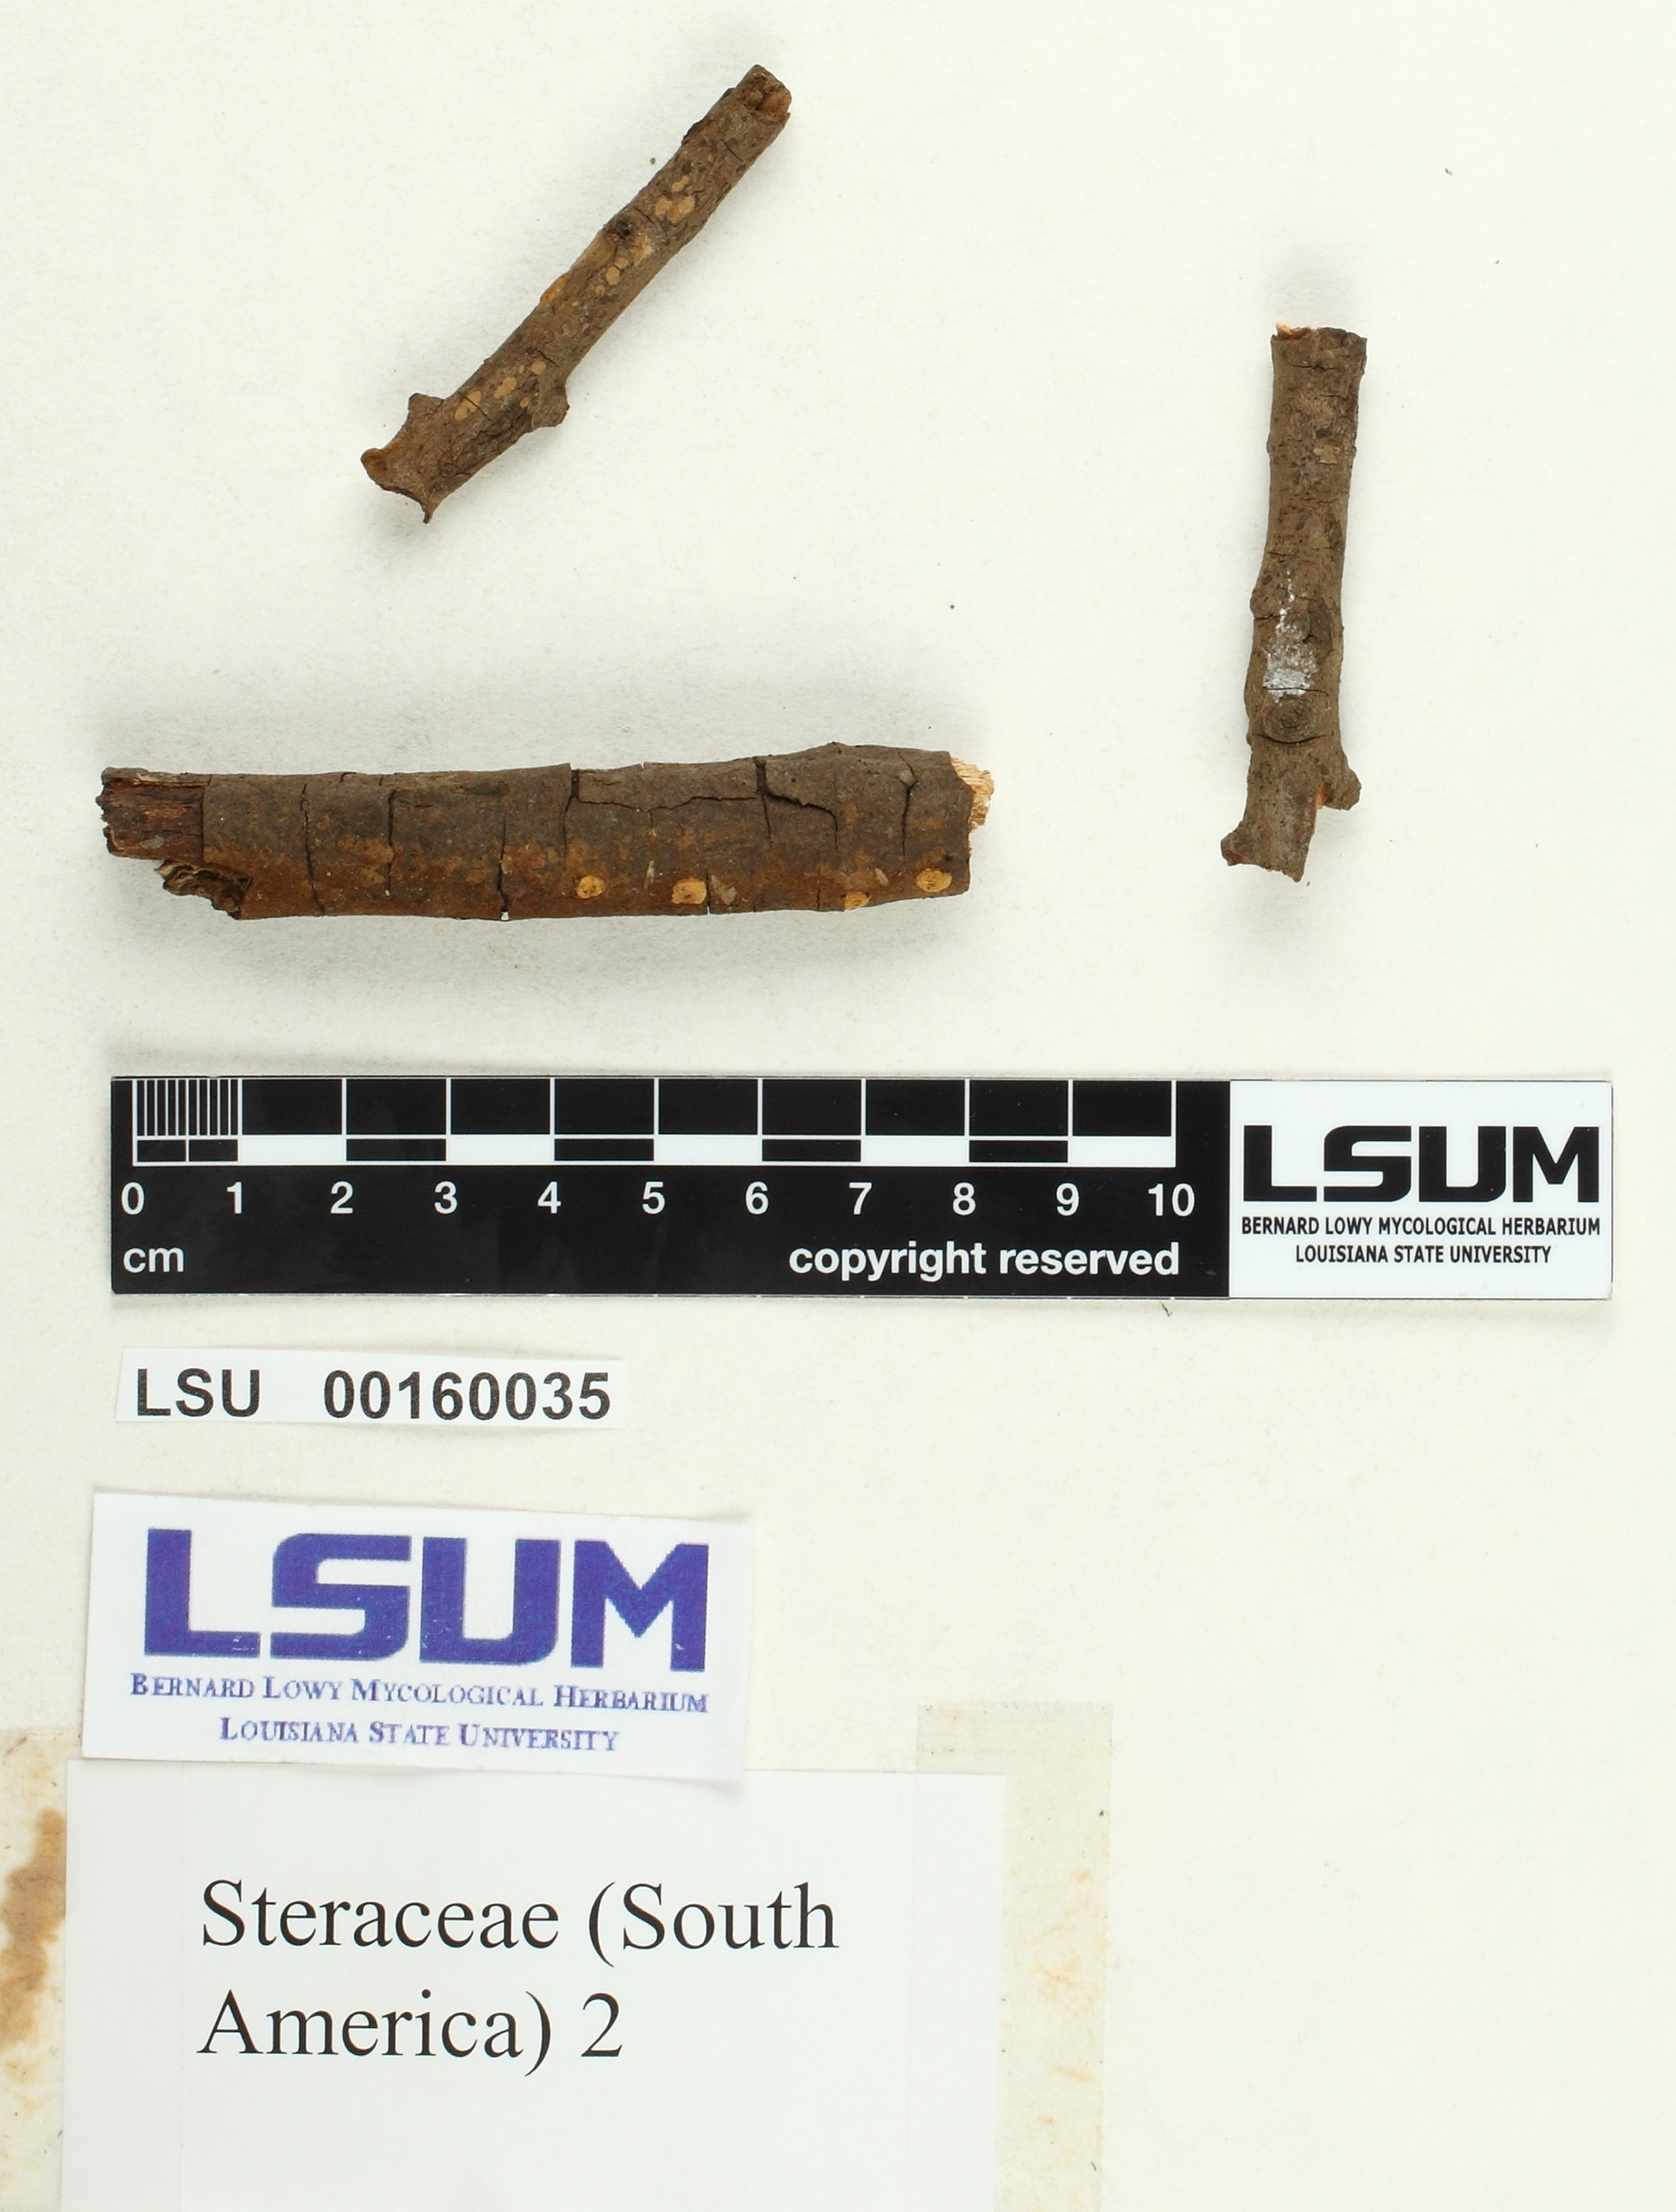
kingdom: Fungi
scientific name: Fungi
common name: Fungi
